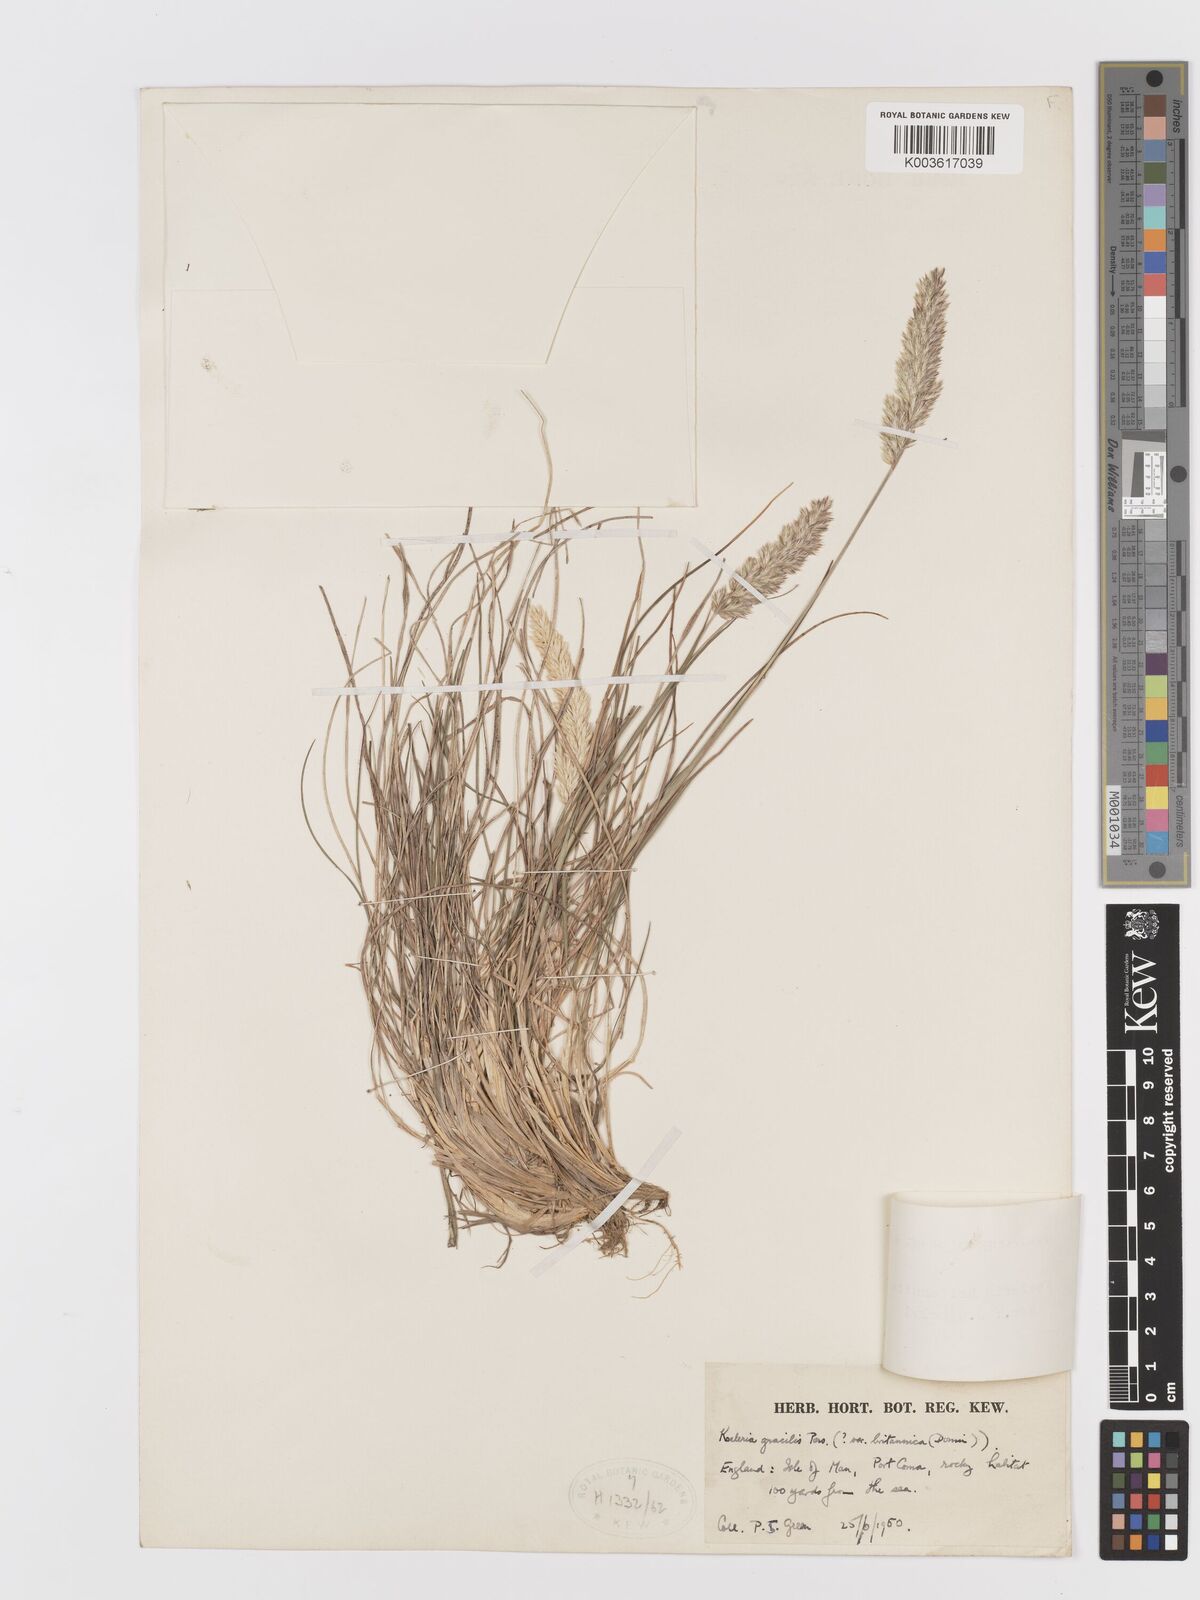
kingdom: Plantae
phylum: Tracheophyta
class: Liliopsida
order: Poales
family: Poaceae
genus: Koeleria
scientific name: Koeleria macrantha
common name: Crested hair-grass
